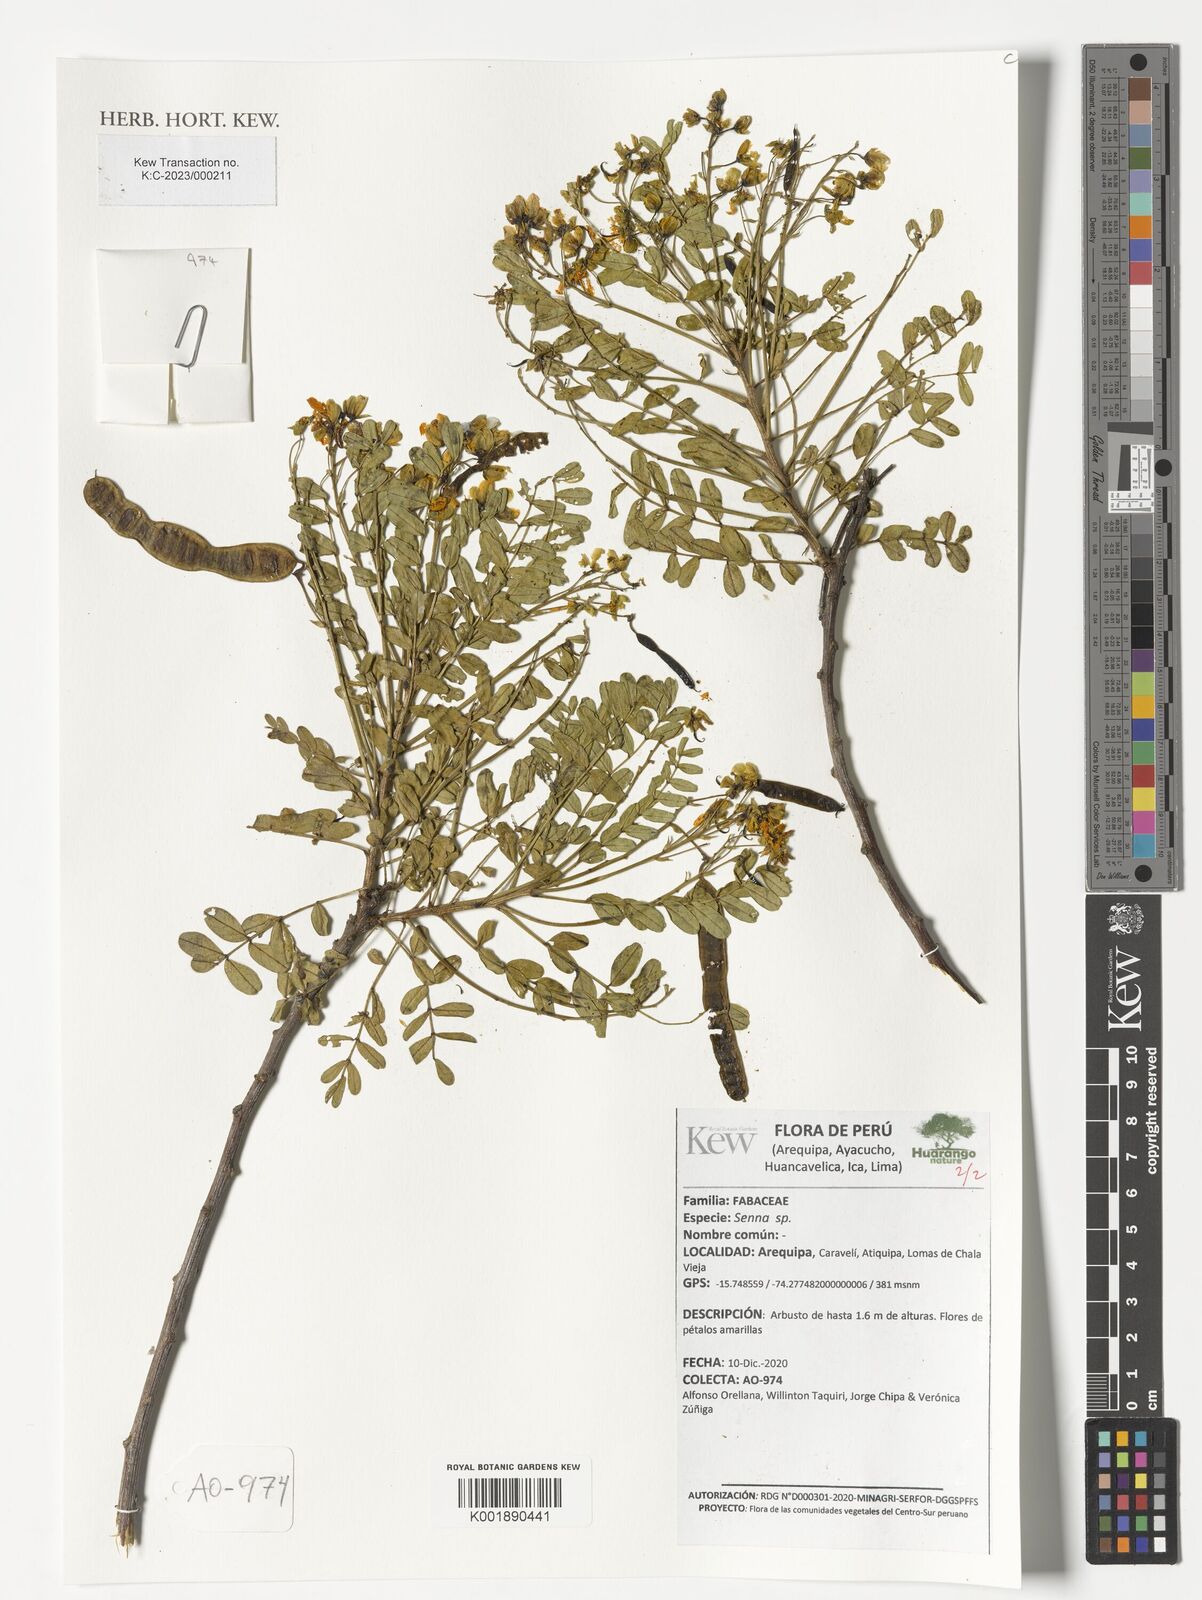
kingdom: Plantae
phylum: Tracheophyta
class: Magnoliopsida
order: Fabales
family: Fabaceae
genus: Senna
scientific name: Senna
